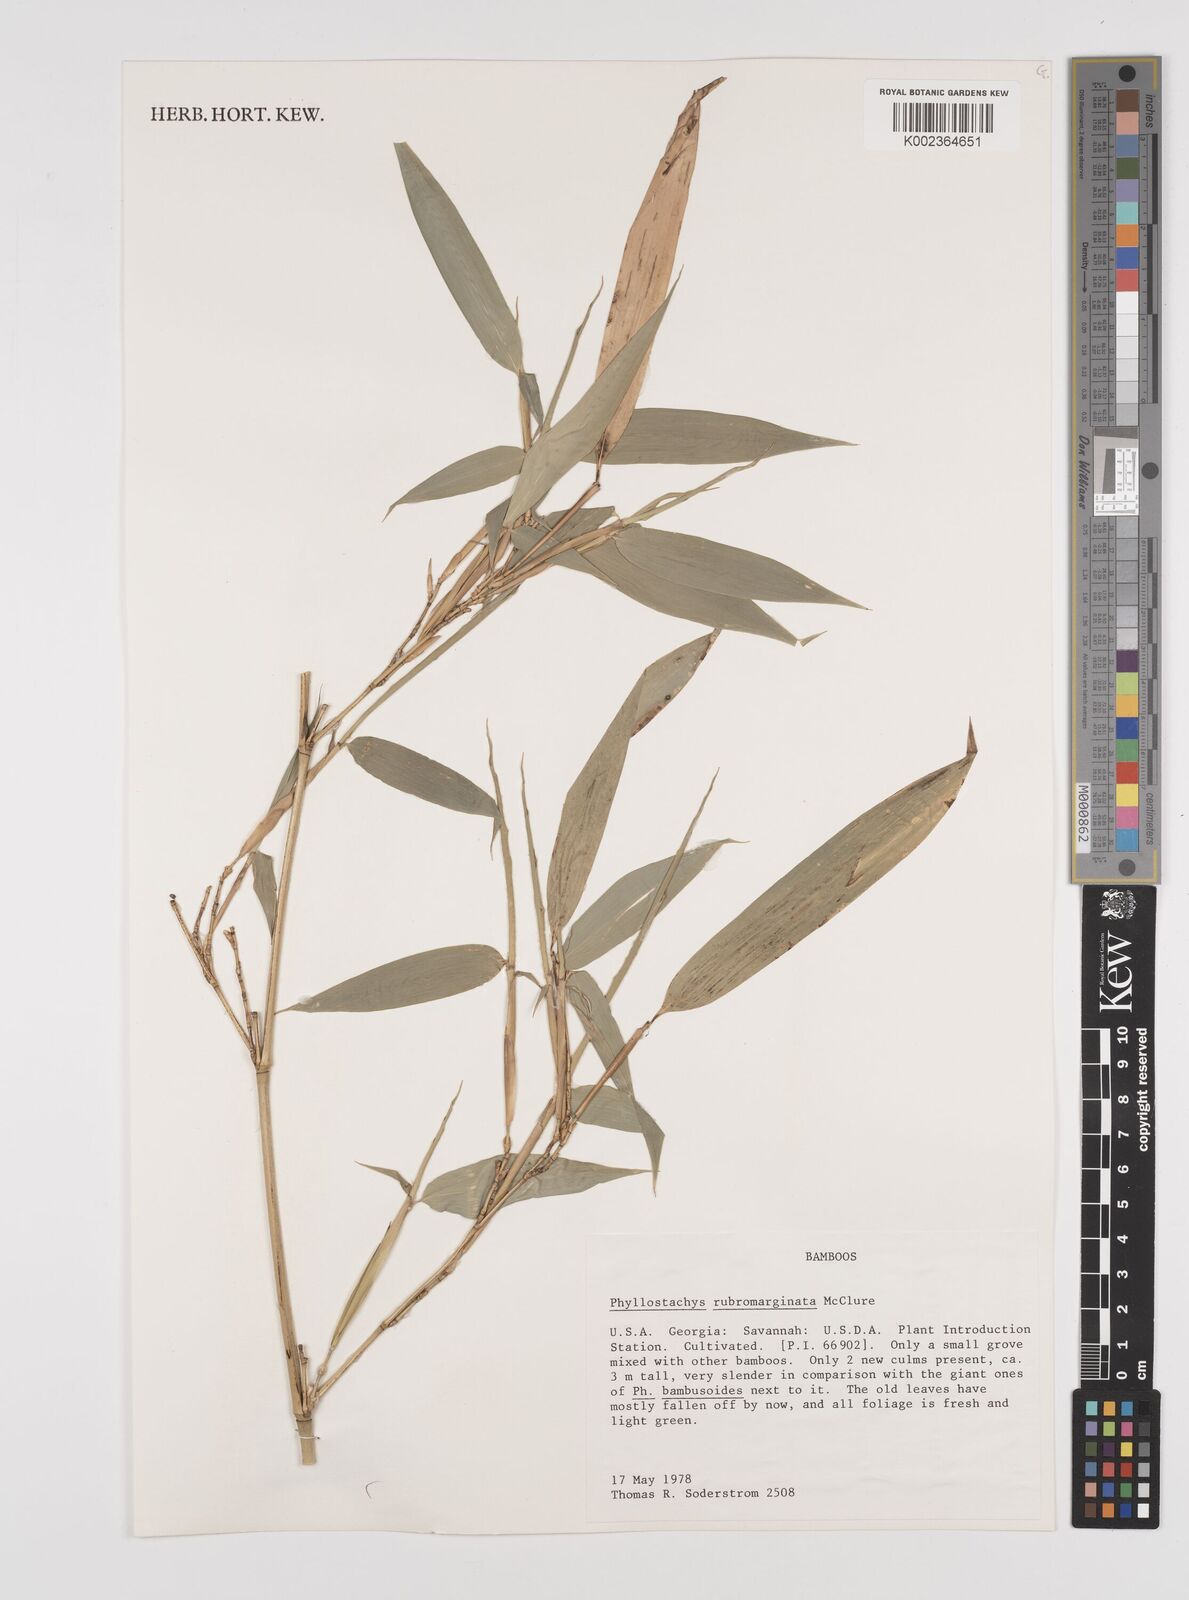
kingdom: Plantae
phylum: Tracheophyta
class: Liliopsida
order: Poales
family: Poaceae
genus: Phyllostachys
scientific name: Phyllostachys rubromarginata
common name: Reddish bamboo
